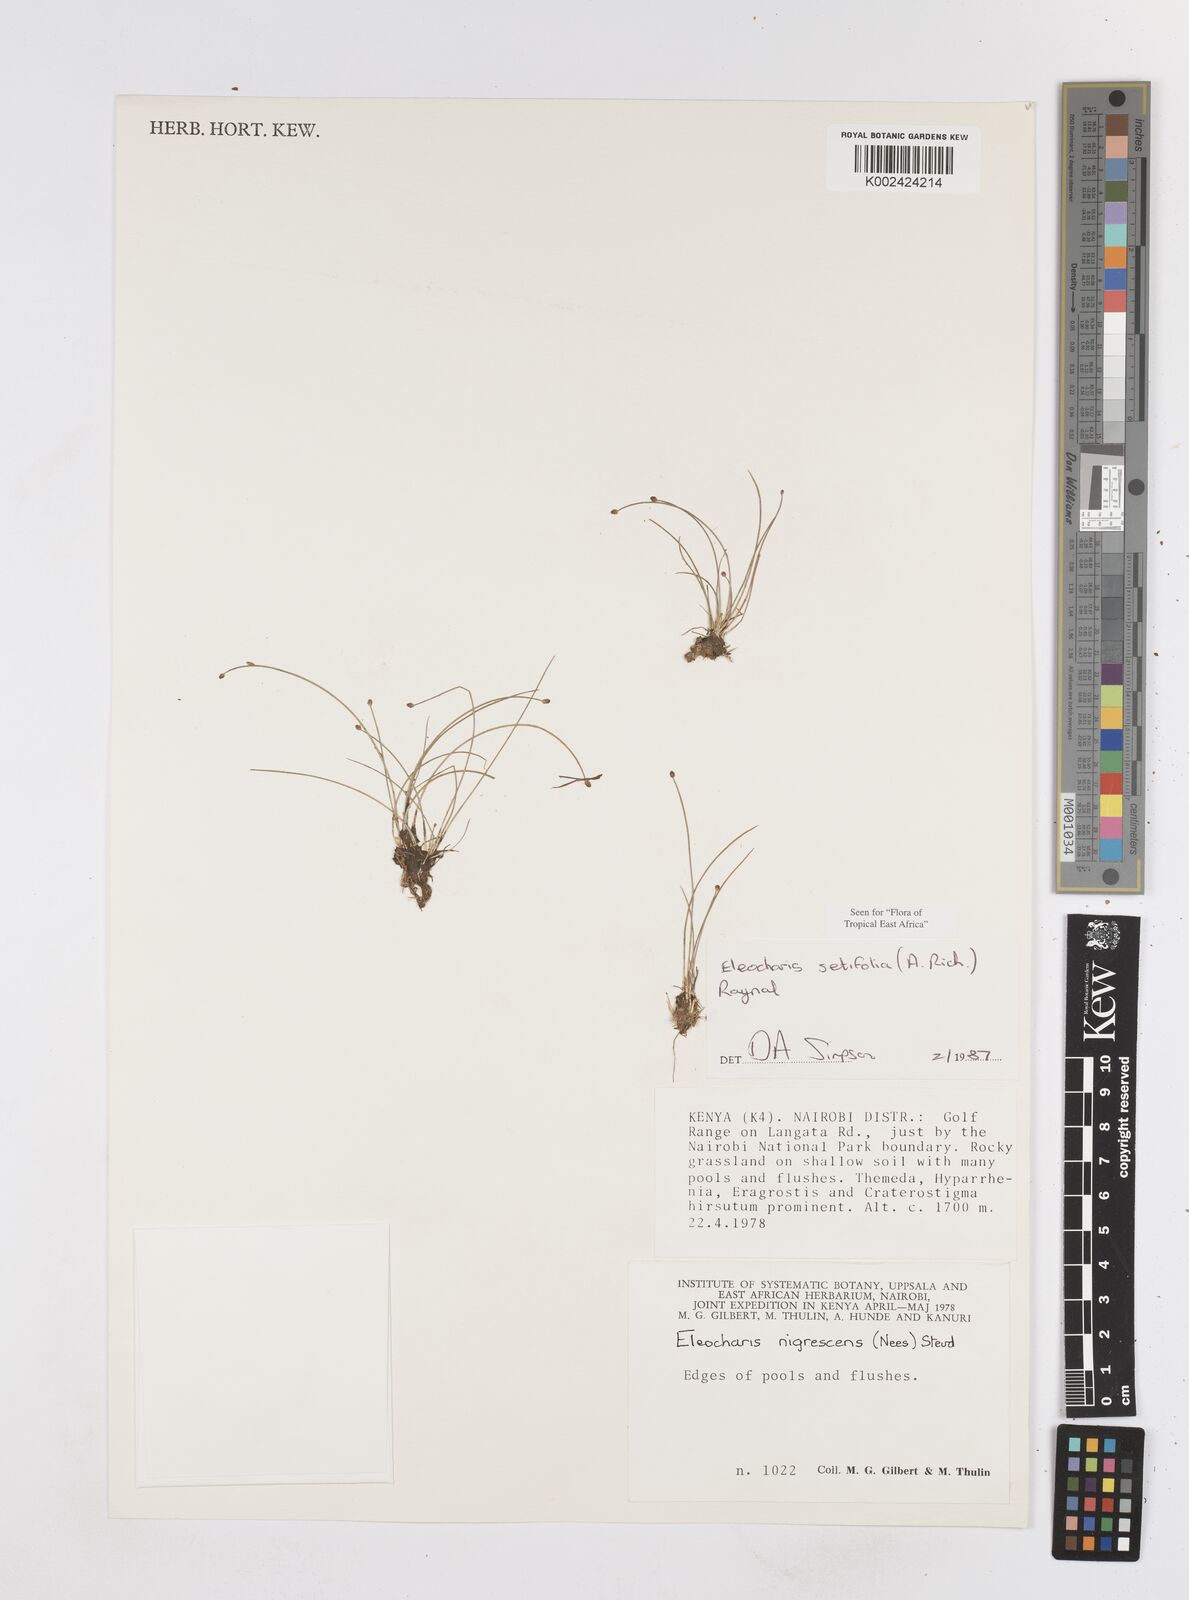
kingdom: Plantae
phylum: Tracheophyta
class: Liliopsida
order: Poales
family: Cyperaceae
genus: Eleocharis
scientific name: Eleocharis setifolia
